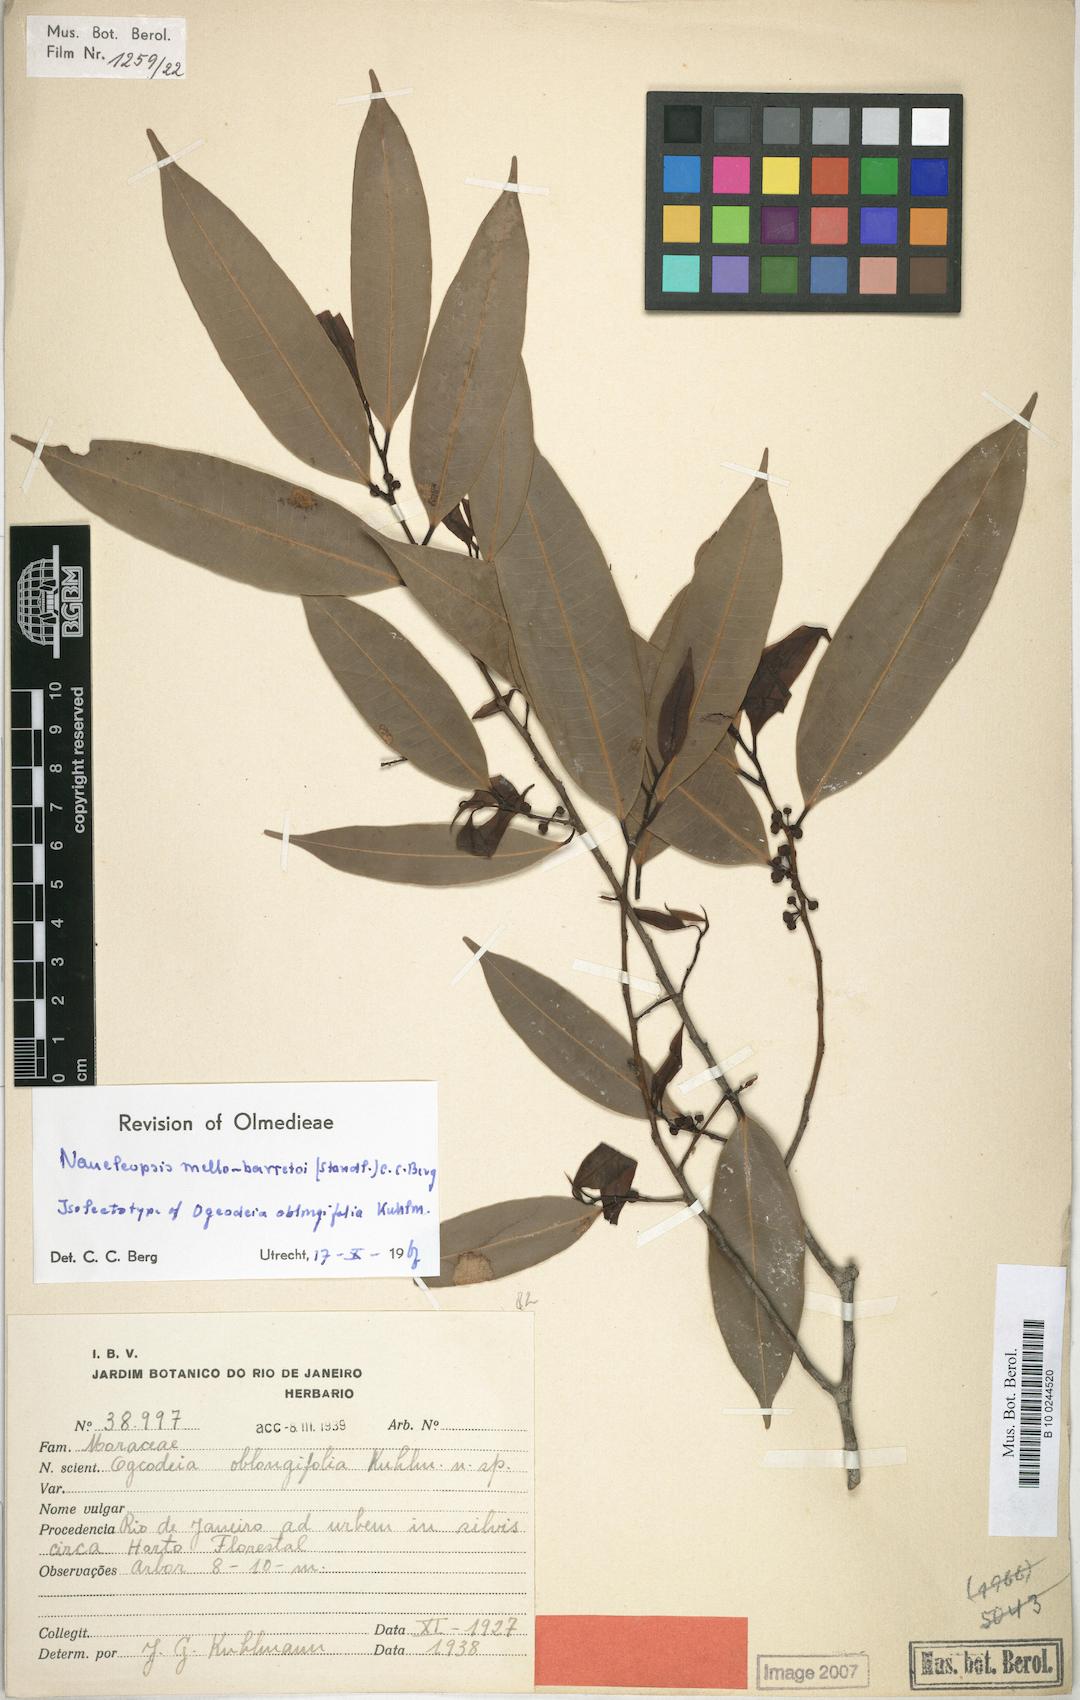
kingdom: Plantae
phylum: Tracheophyta
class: Magnoliopsida
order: Rosales
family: Moraceae
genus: Naucleopsis
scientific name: Naucleopsis oblongifolia
